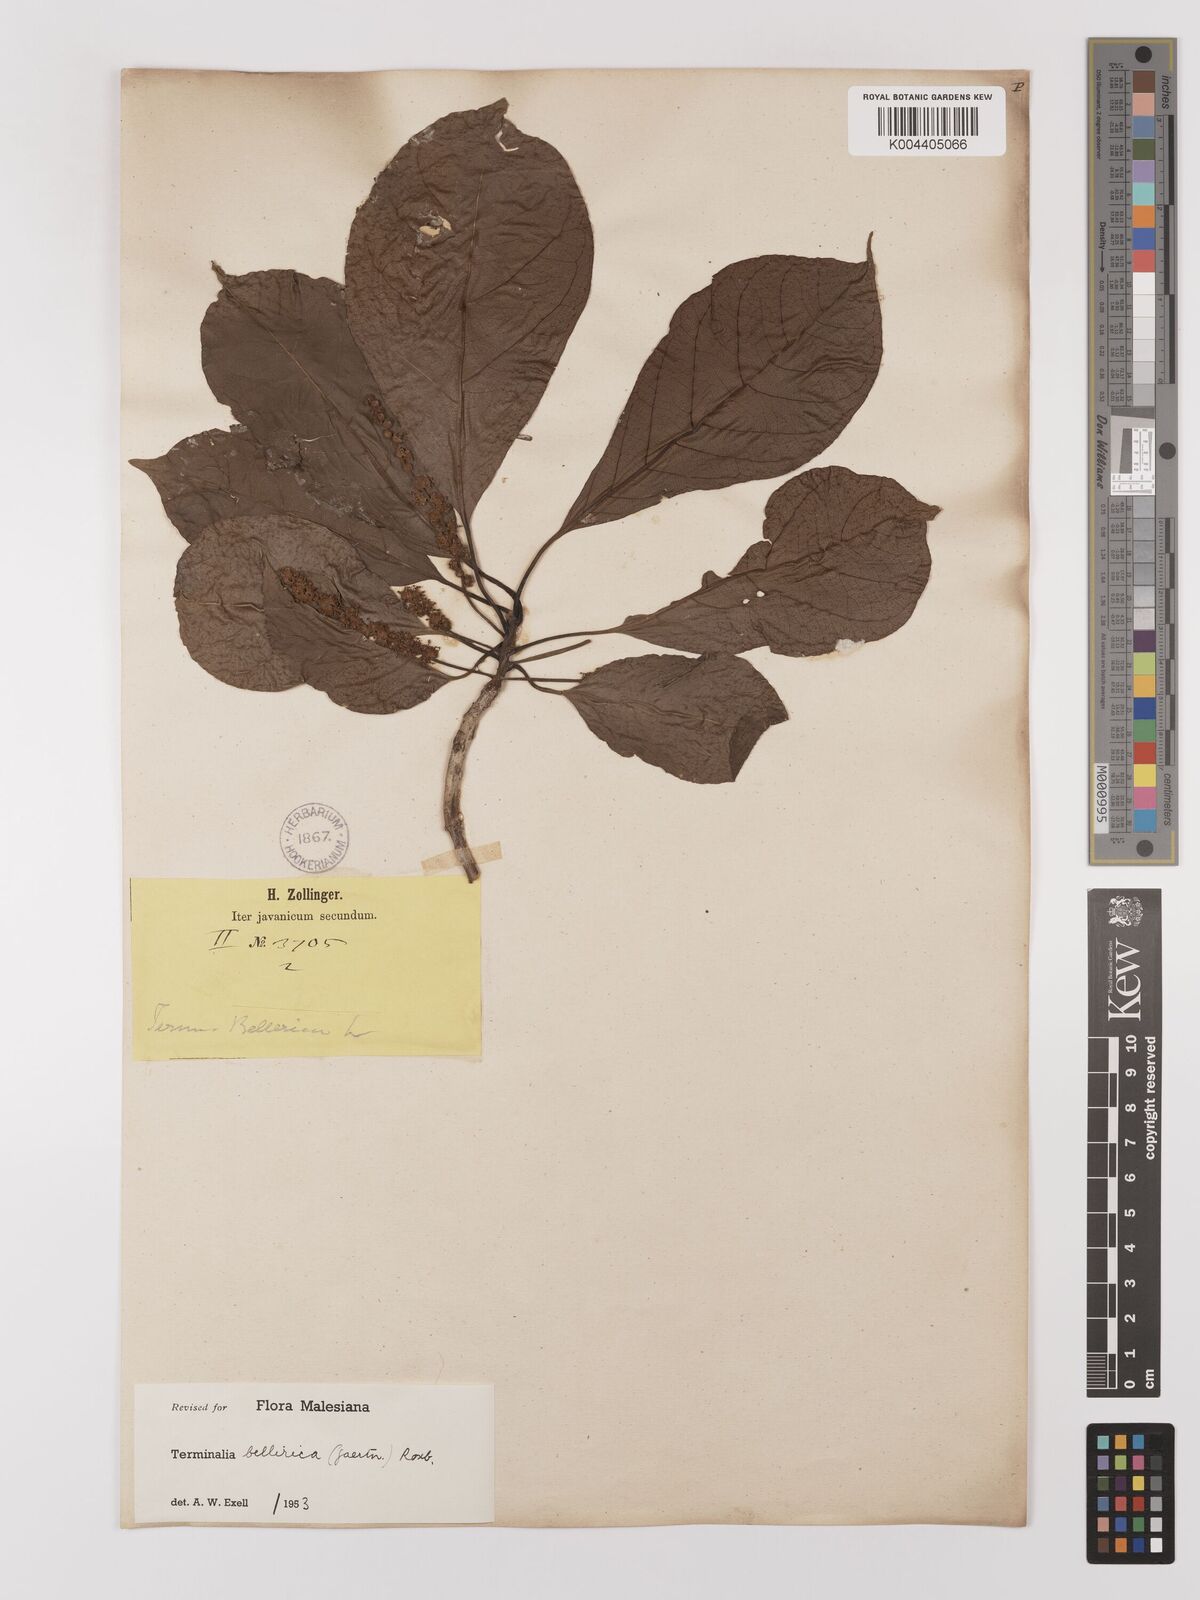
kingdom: Plantae
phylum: Tracheophyta
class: Magnoliopsida
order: Myrtales
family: Combretaceae
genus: Terminalia
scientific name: Terminalia bellirica
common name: Beleric myrobalan
